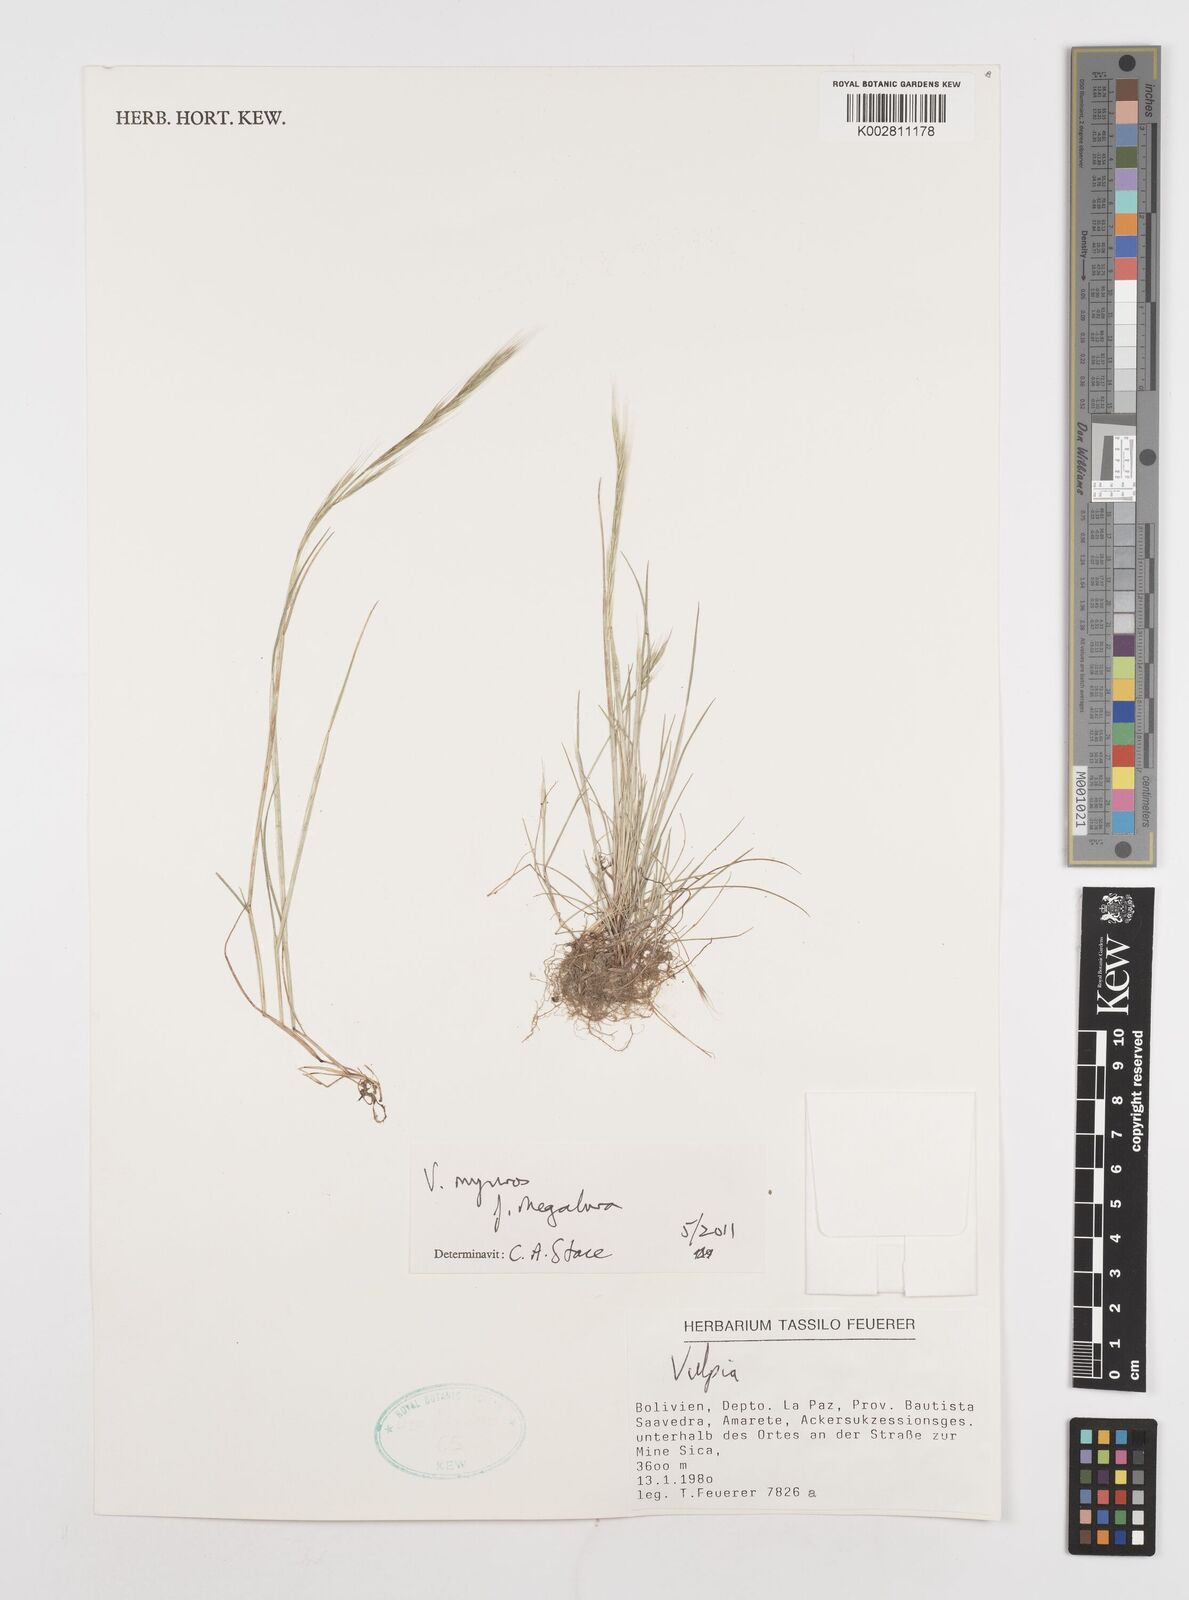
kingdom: Plantae
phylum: Tracheophyta
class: Liliopsida
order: Poales
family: Poaceae
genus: Festuca
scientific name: Festuca myuros
